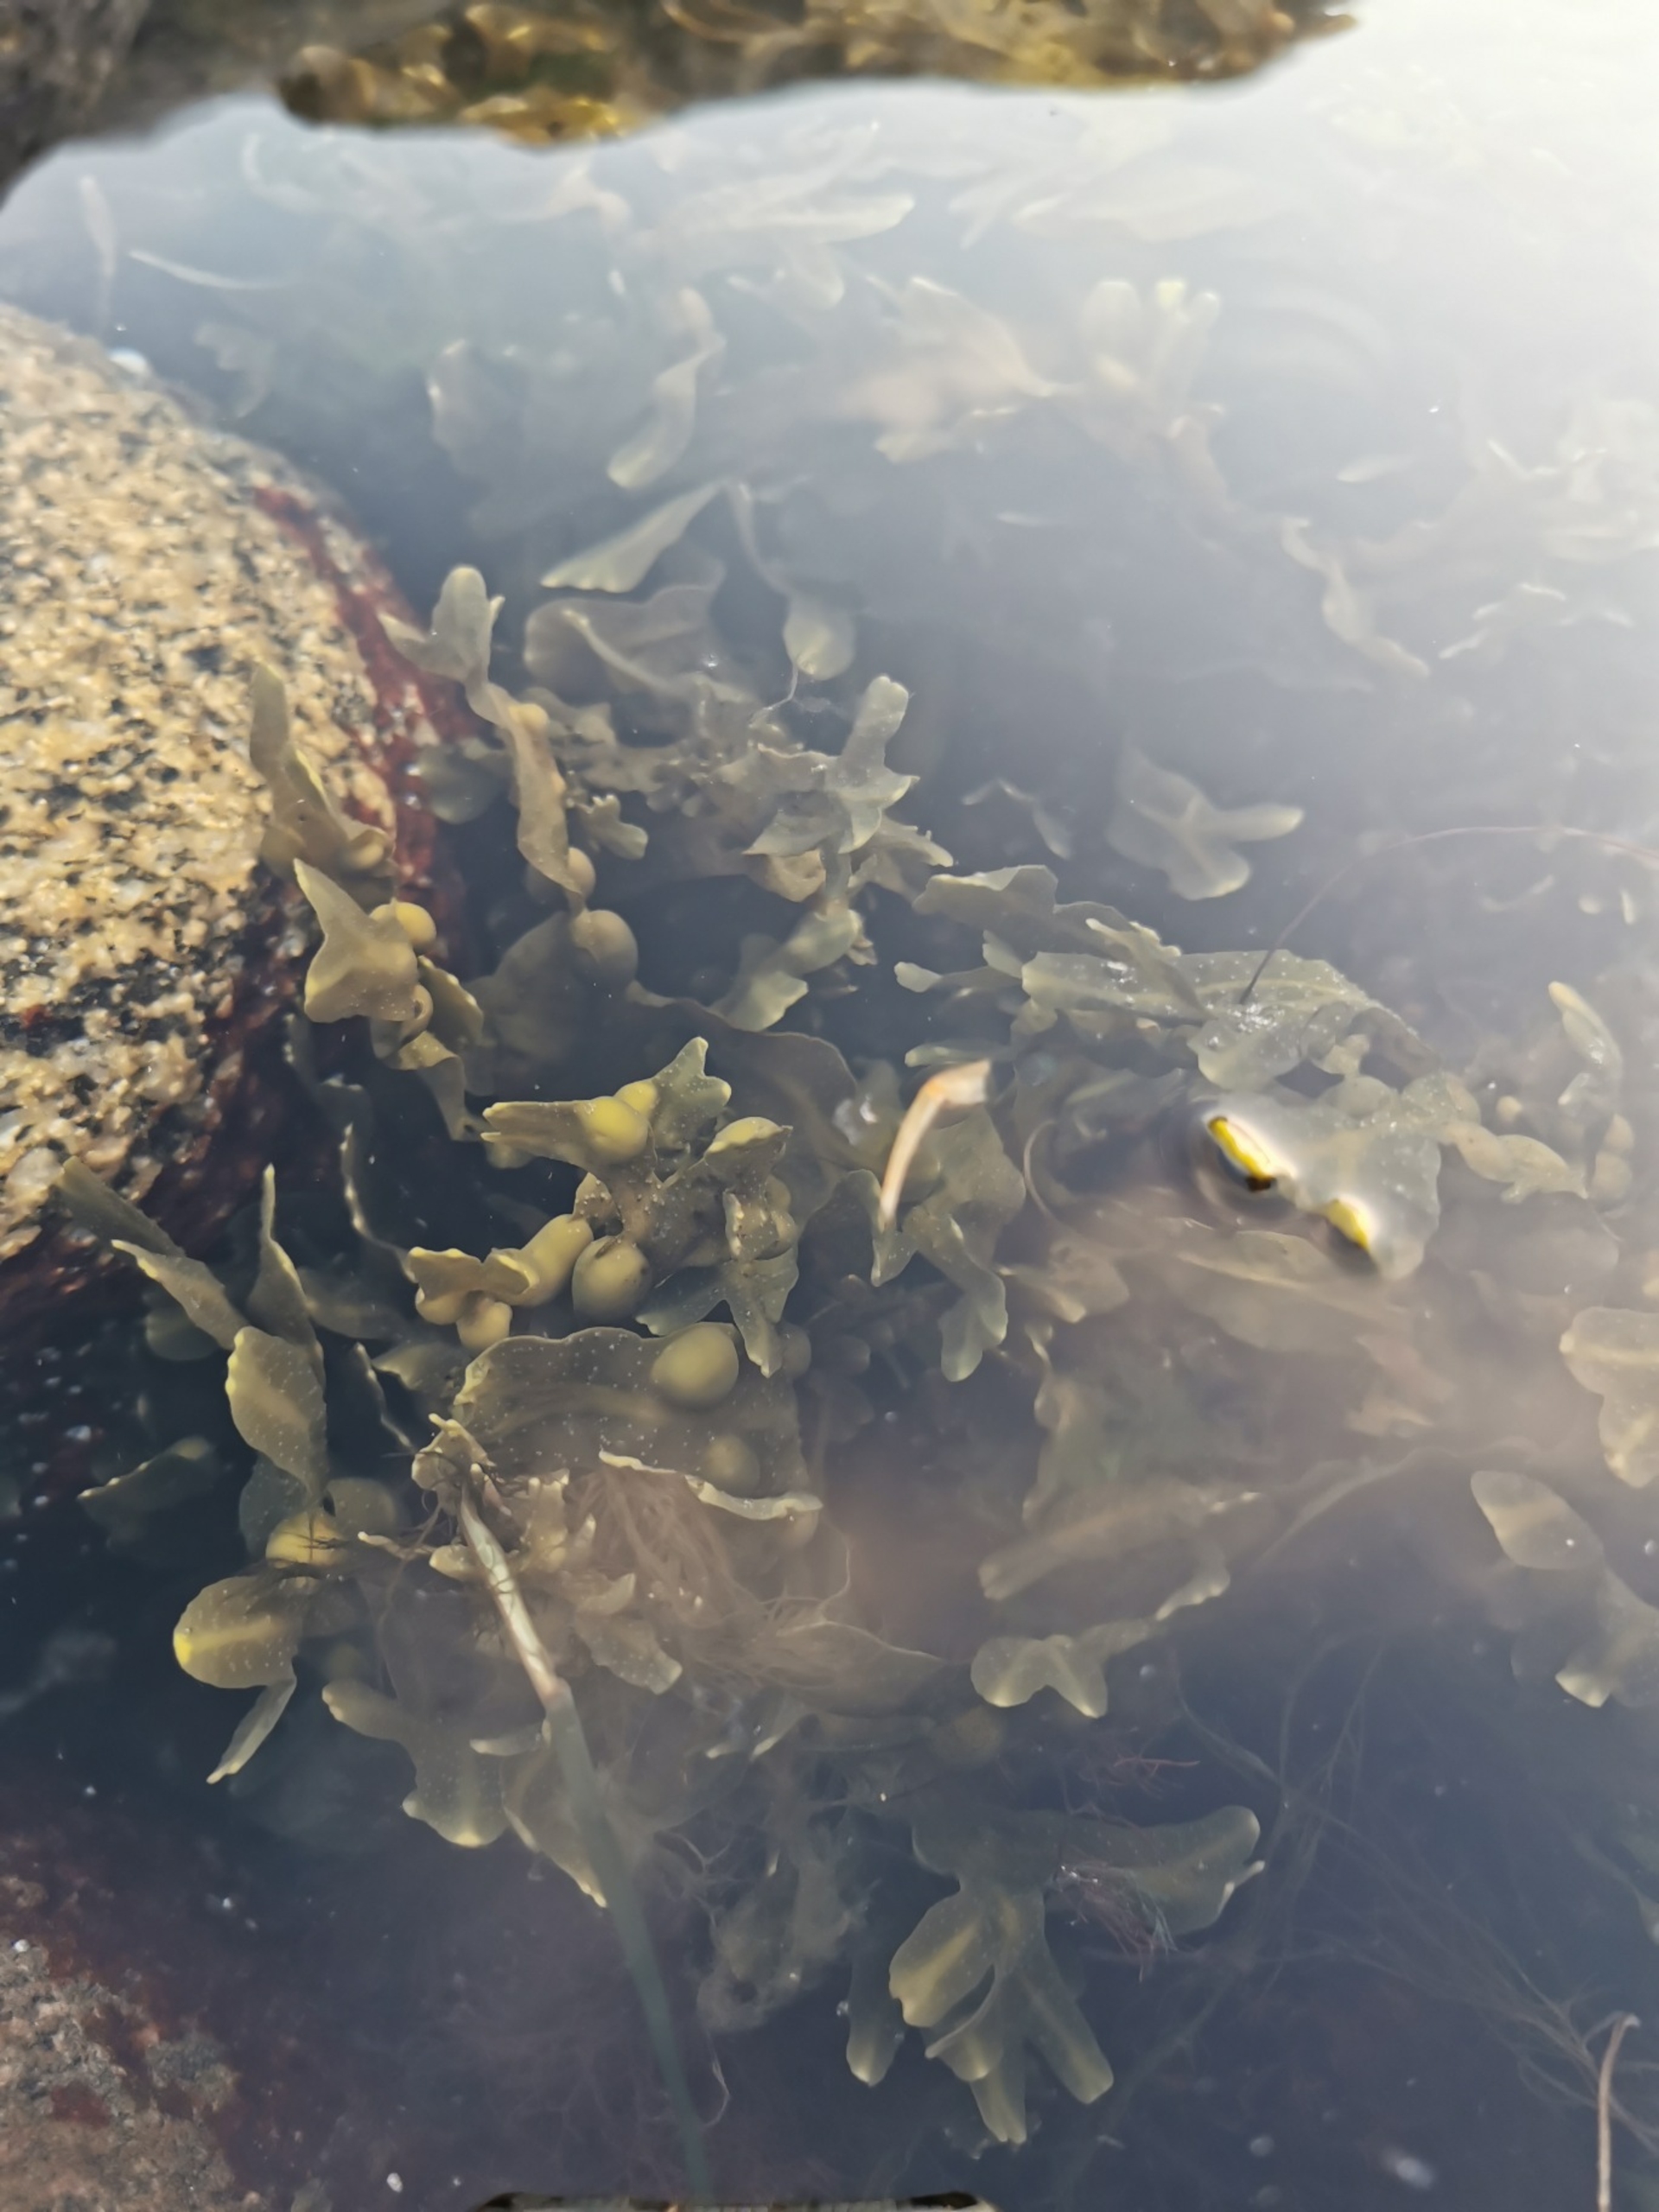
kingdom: Chromista
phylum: Ochrophyta
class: Phaeophyceae
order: Fucales
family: Fucaceae
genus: Fucus
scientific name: Fucus vesiculosus
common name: Blæretang
